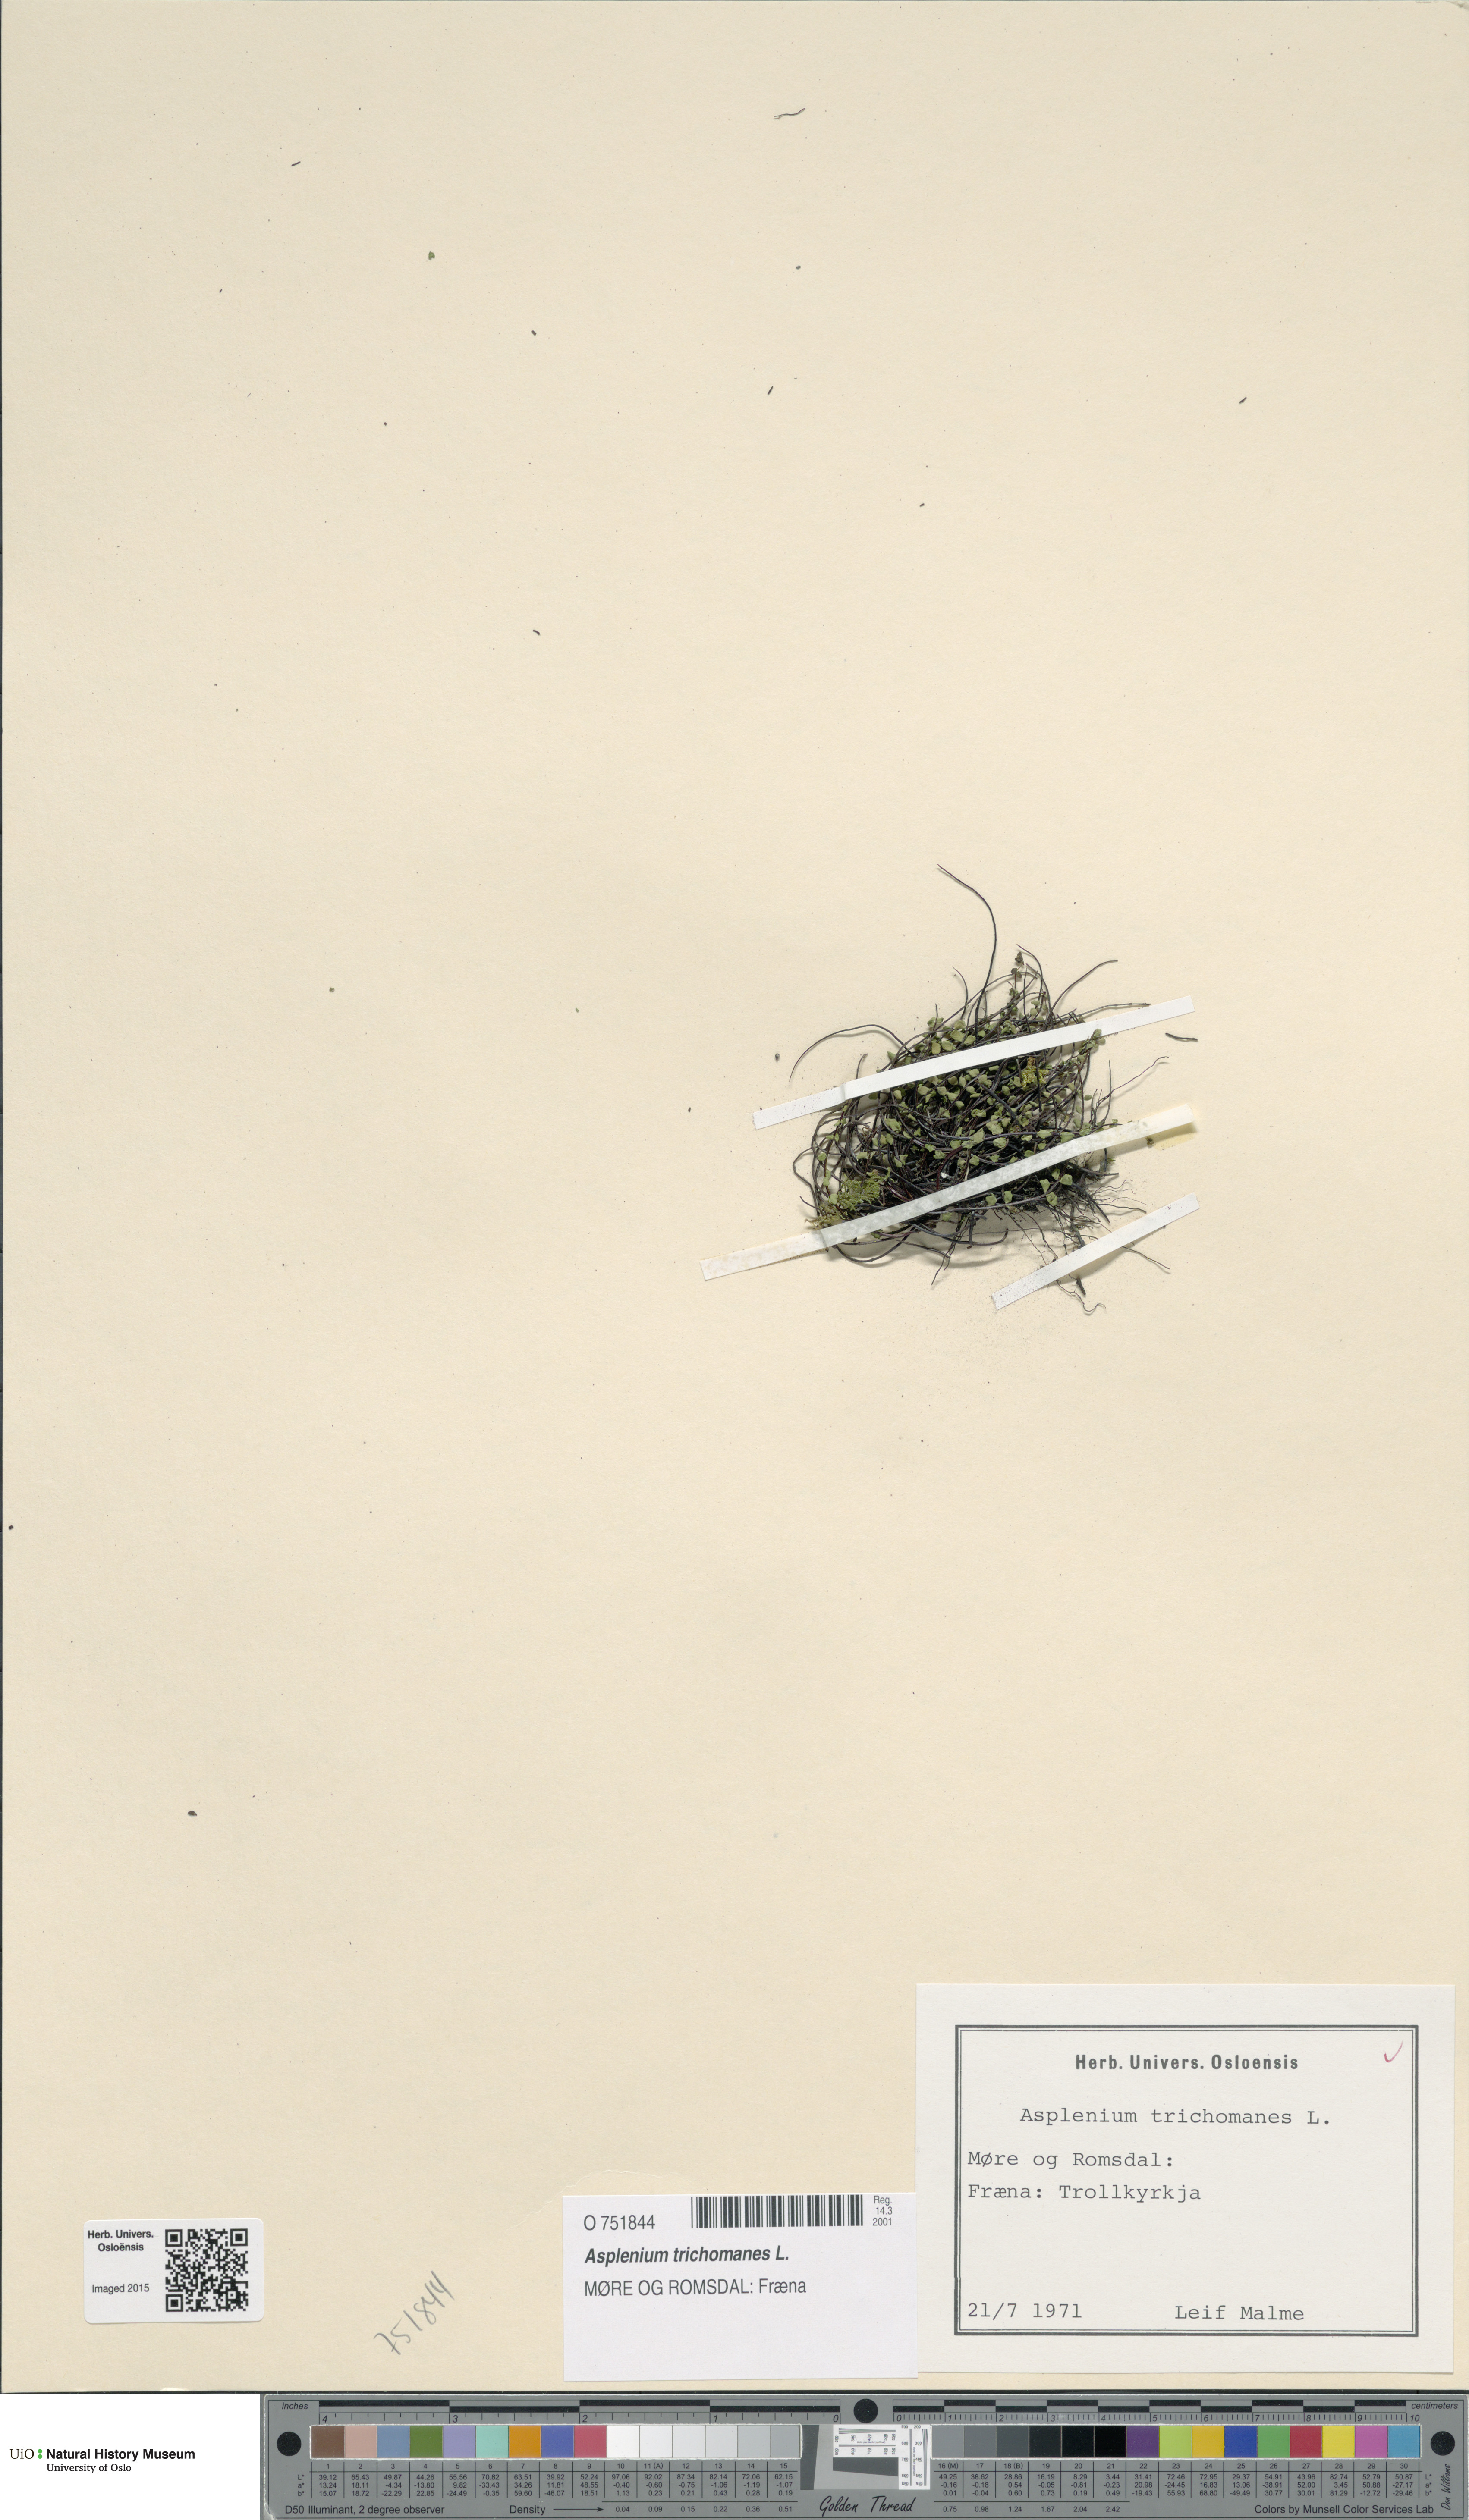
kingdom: Plantae
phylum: Tracheophyta
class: Polypodiopsida
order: Polypodiales
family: Aspleniaceae
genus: Asplenium
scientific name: Asplenium trichomanes
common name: Maidenhair spleenwort
